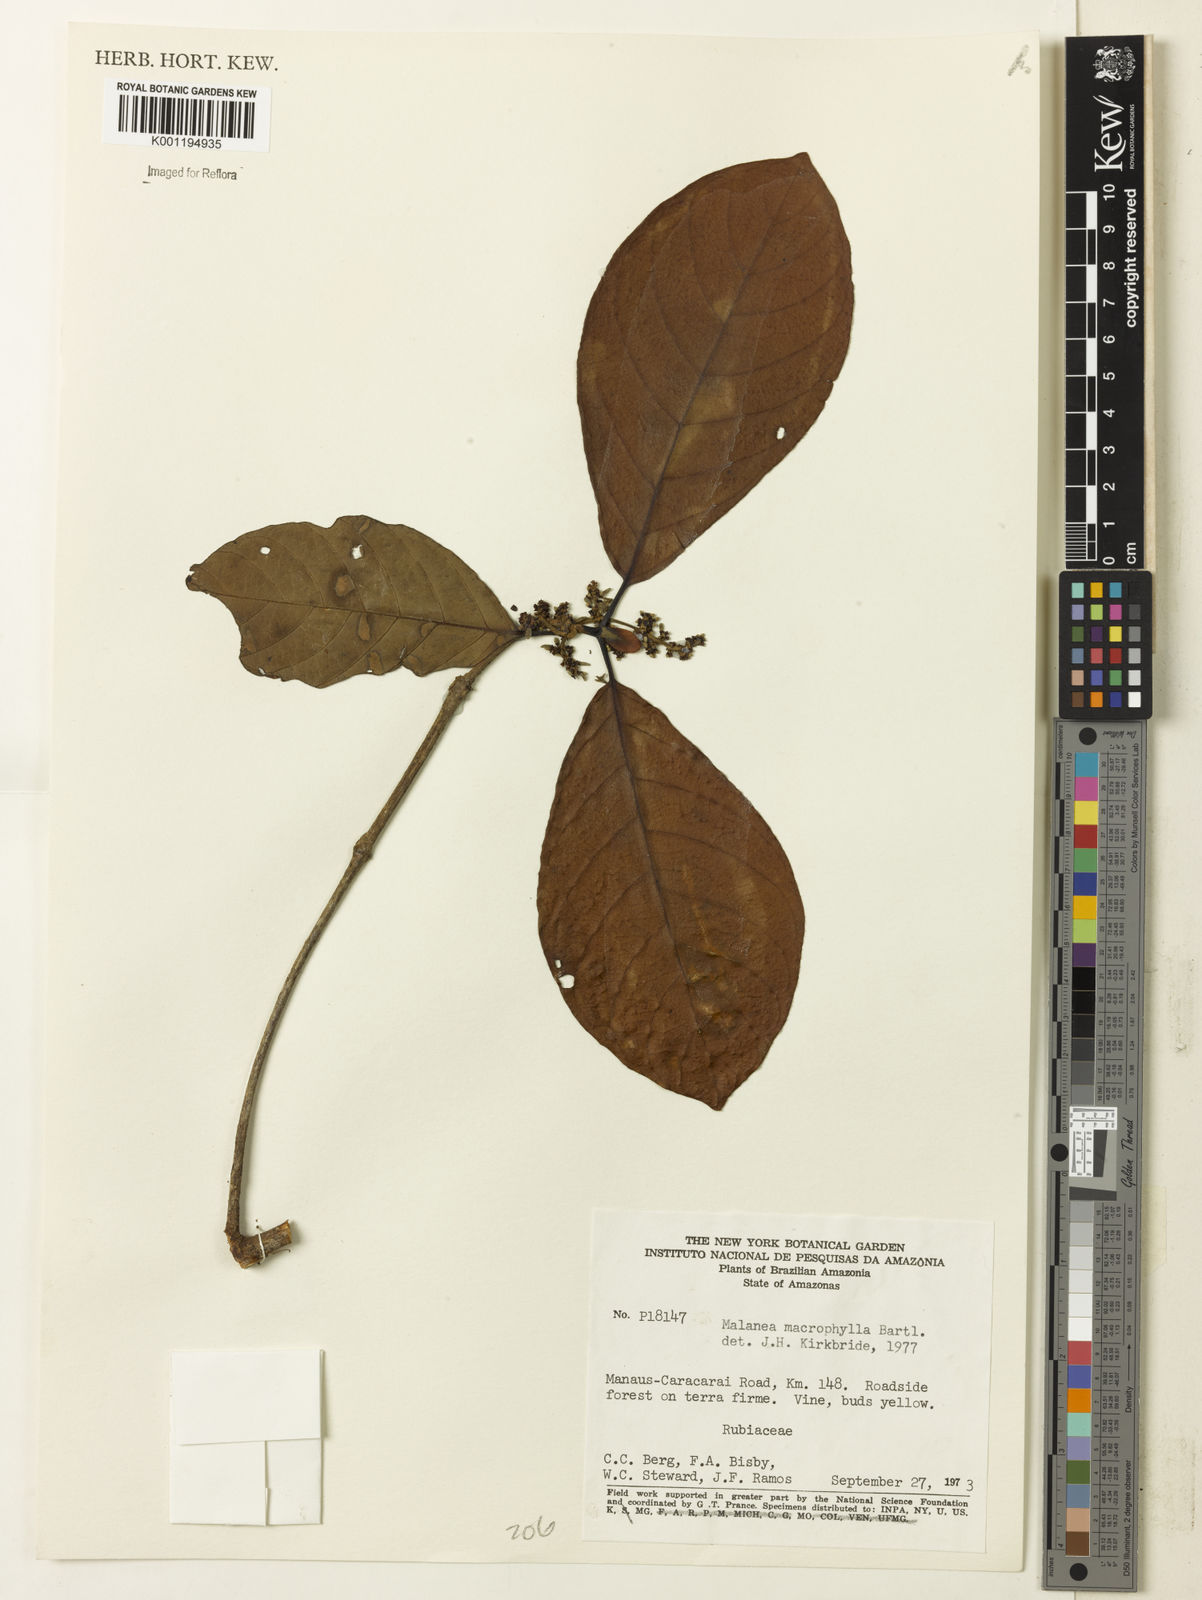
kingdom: Plantae
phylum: Tracheophyta
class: Magnoliopsida
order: Gentianales
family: Rubiaceae
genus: Malanea
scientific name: Malanea glabra
